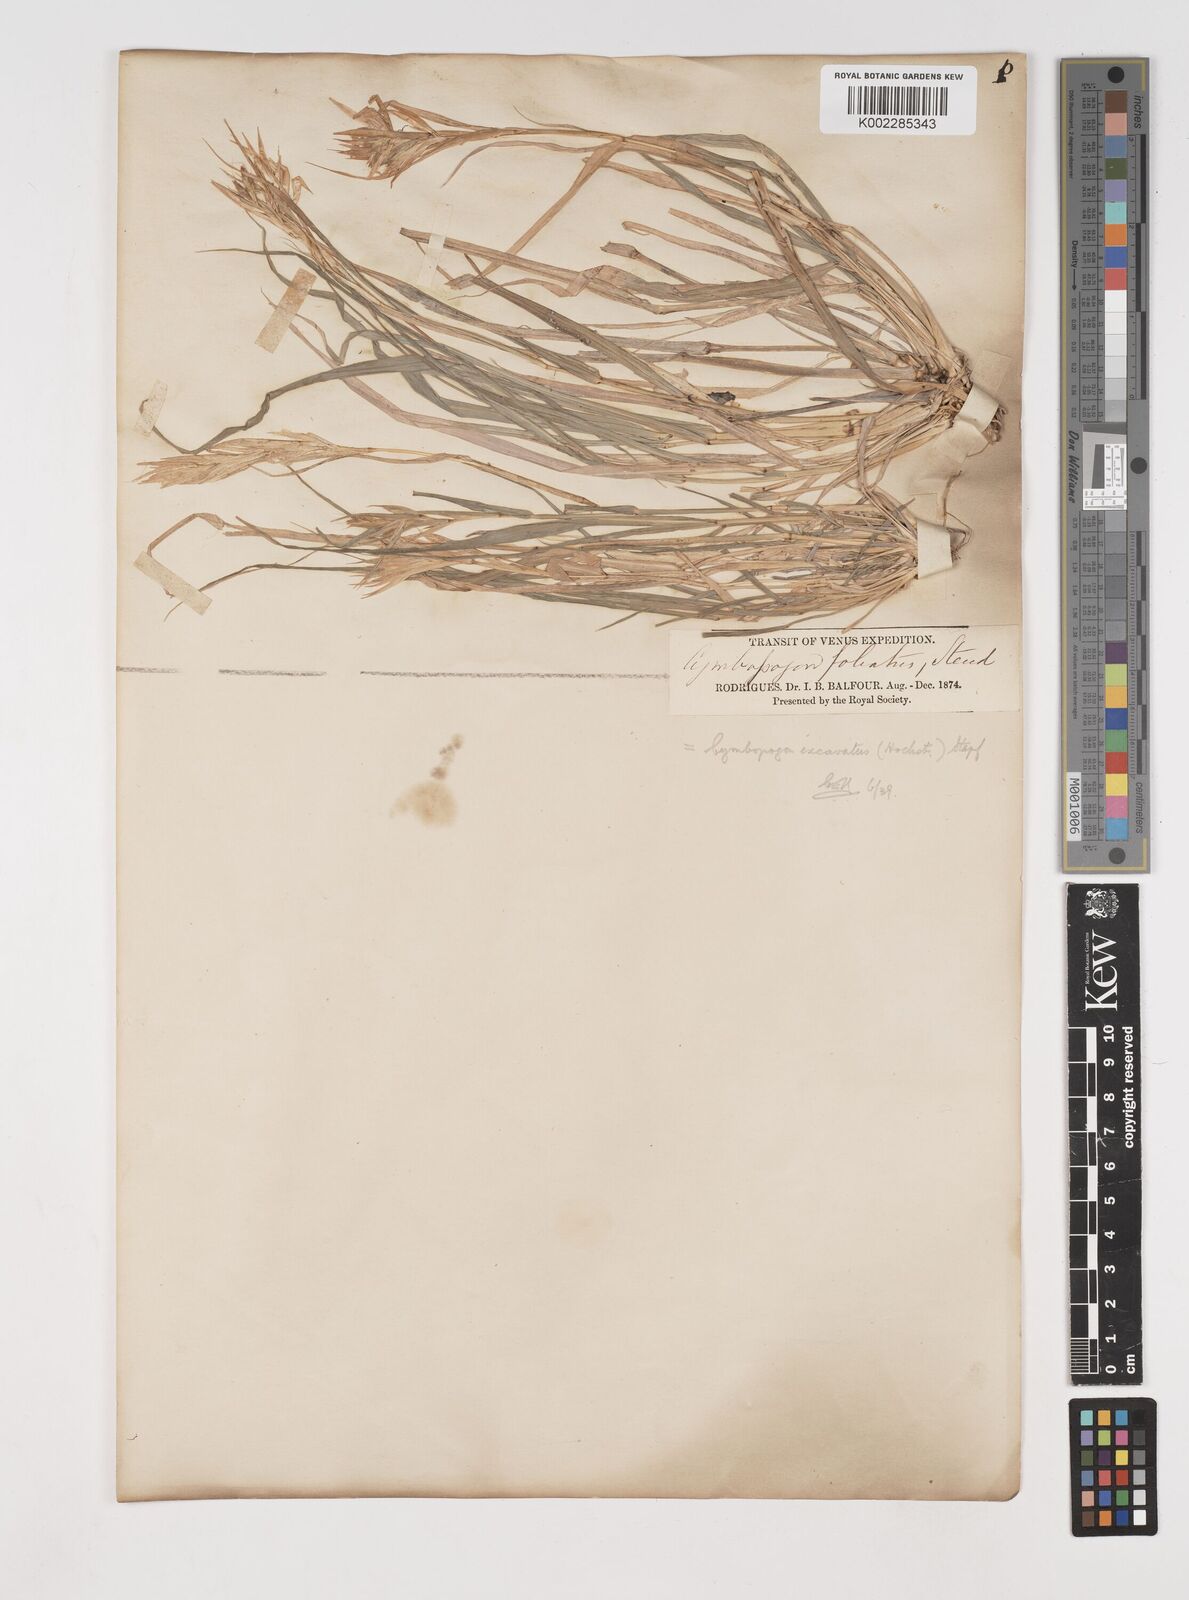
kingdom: Plantae
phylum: Tracheophyta
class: Liliopsida
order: Poales
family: Poaceae
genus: Cymbopogon
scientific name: Cymbopogon pruinosus
